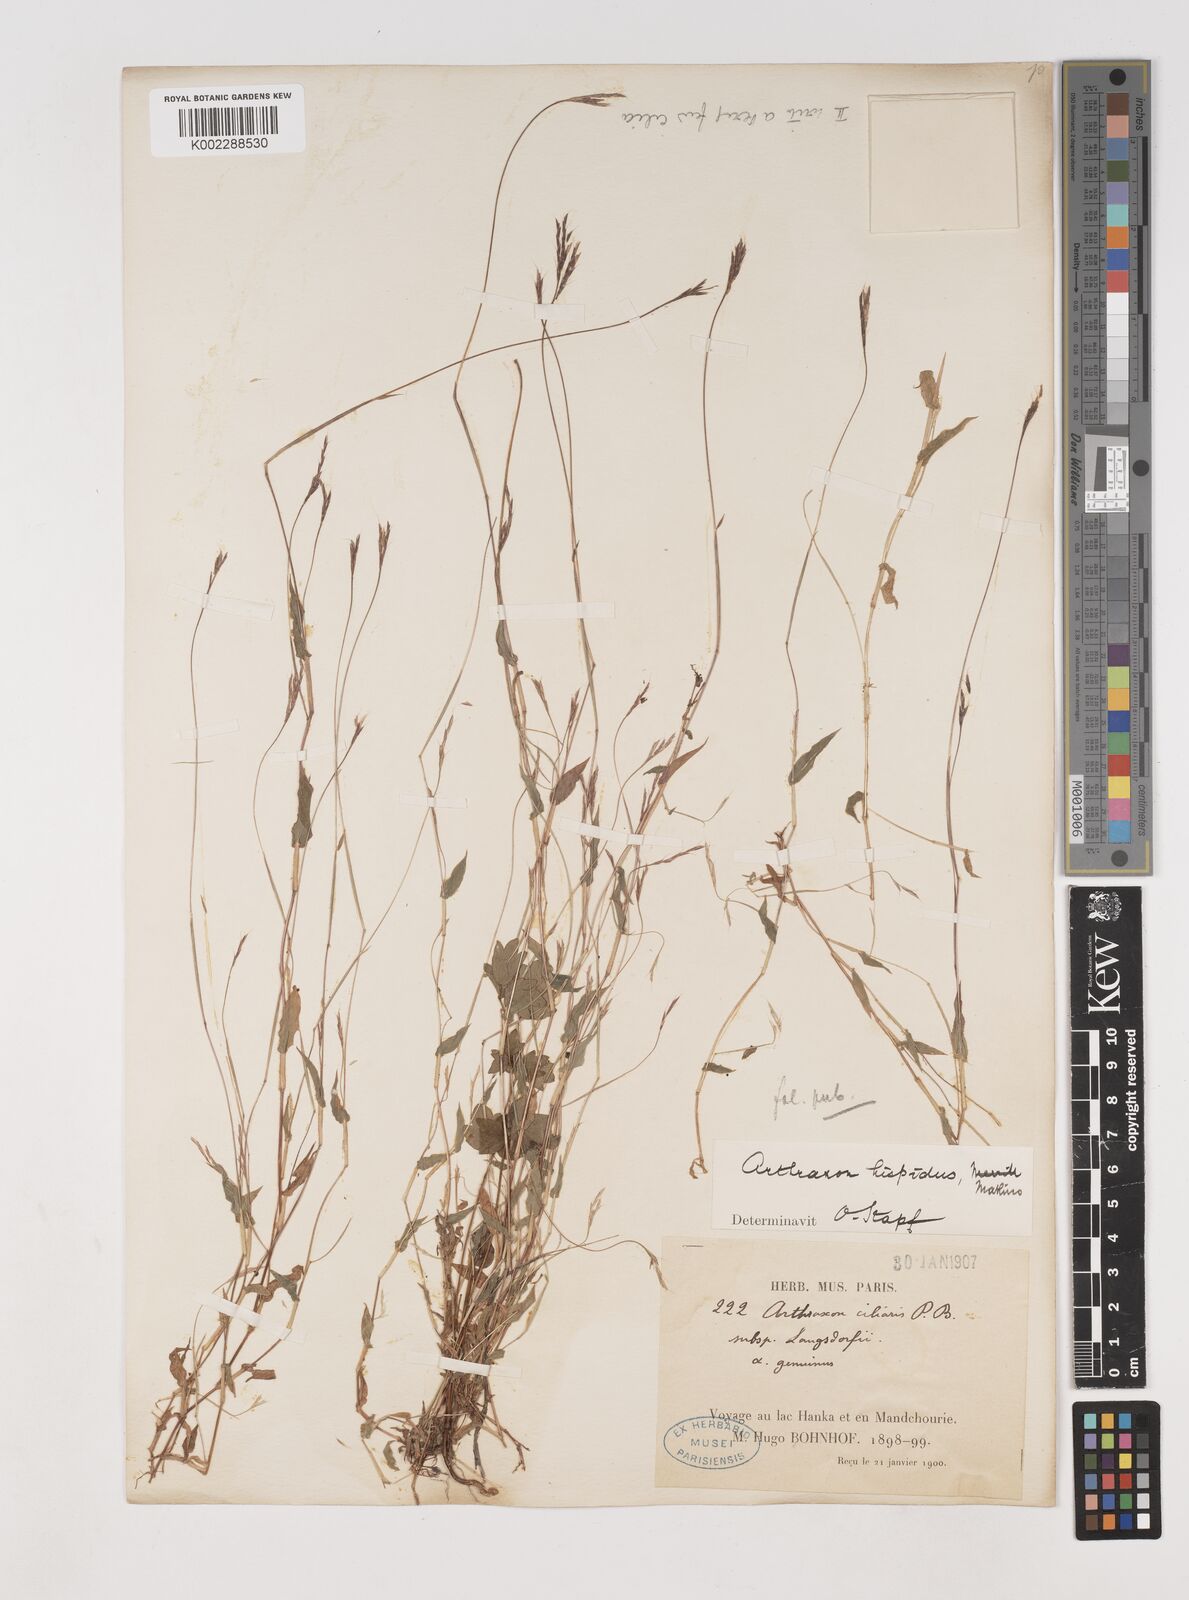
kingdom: Plantae
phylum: Tracheophyta
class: Liliopsida
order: Poales
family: Poaceae
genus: Arthraxon
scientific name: Arthraxon hispidus
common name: Small carpgrass
